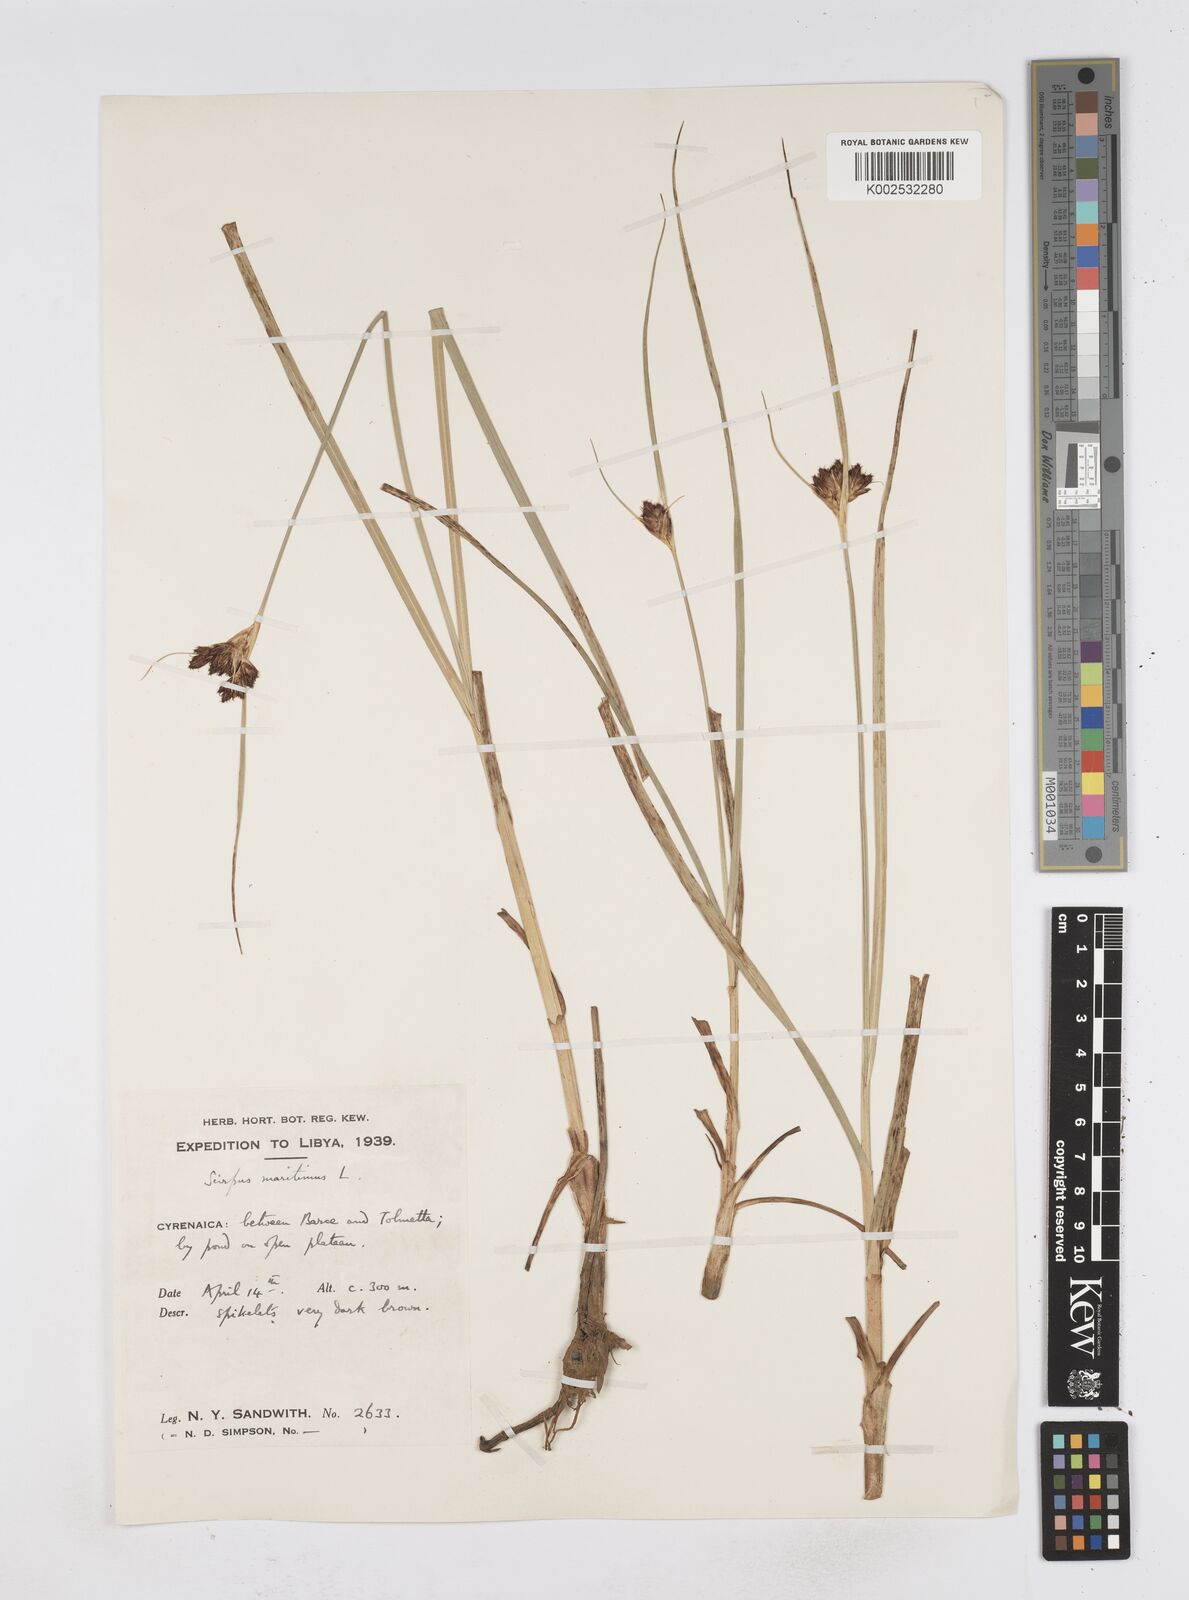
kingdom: Plantae
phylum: Tracheophyta
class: Liliopsida
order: Poales
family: Cyperaceae
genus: Bolboschoenus
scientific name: Bolboschoenus maritimus
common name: Sea club-rush
